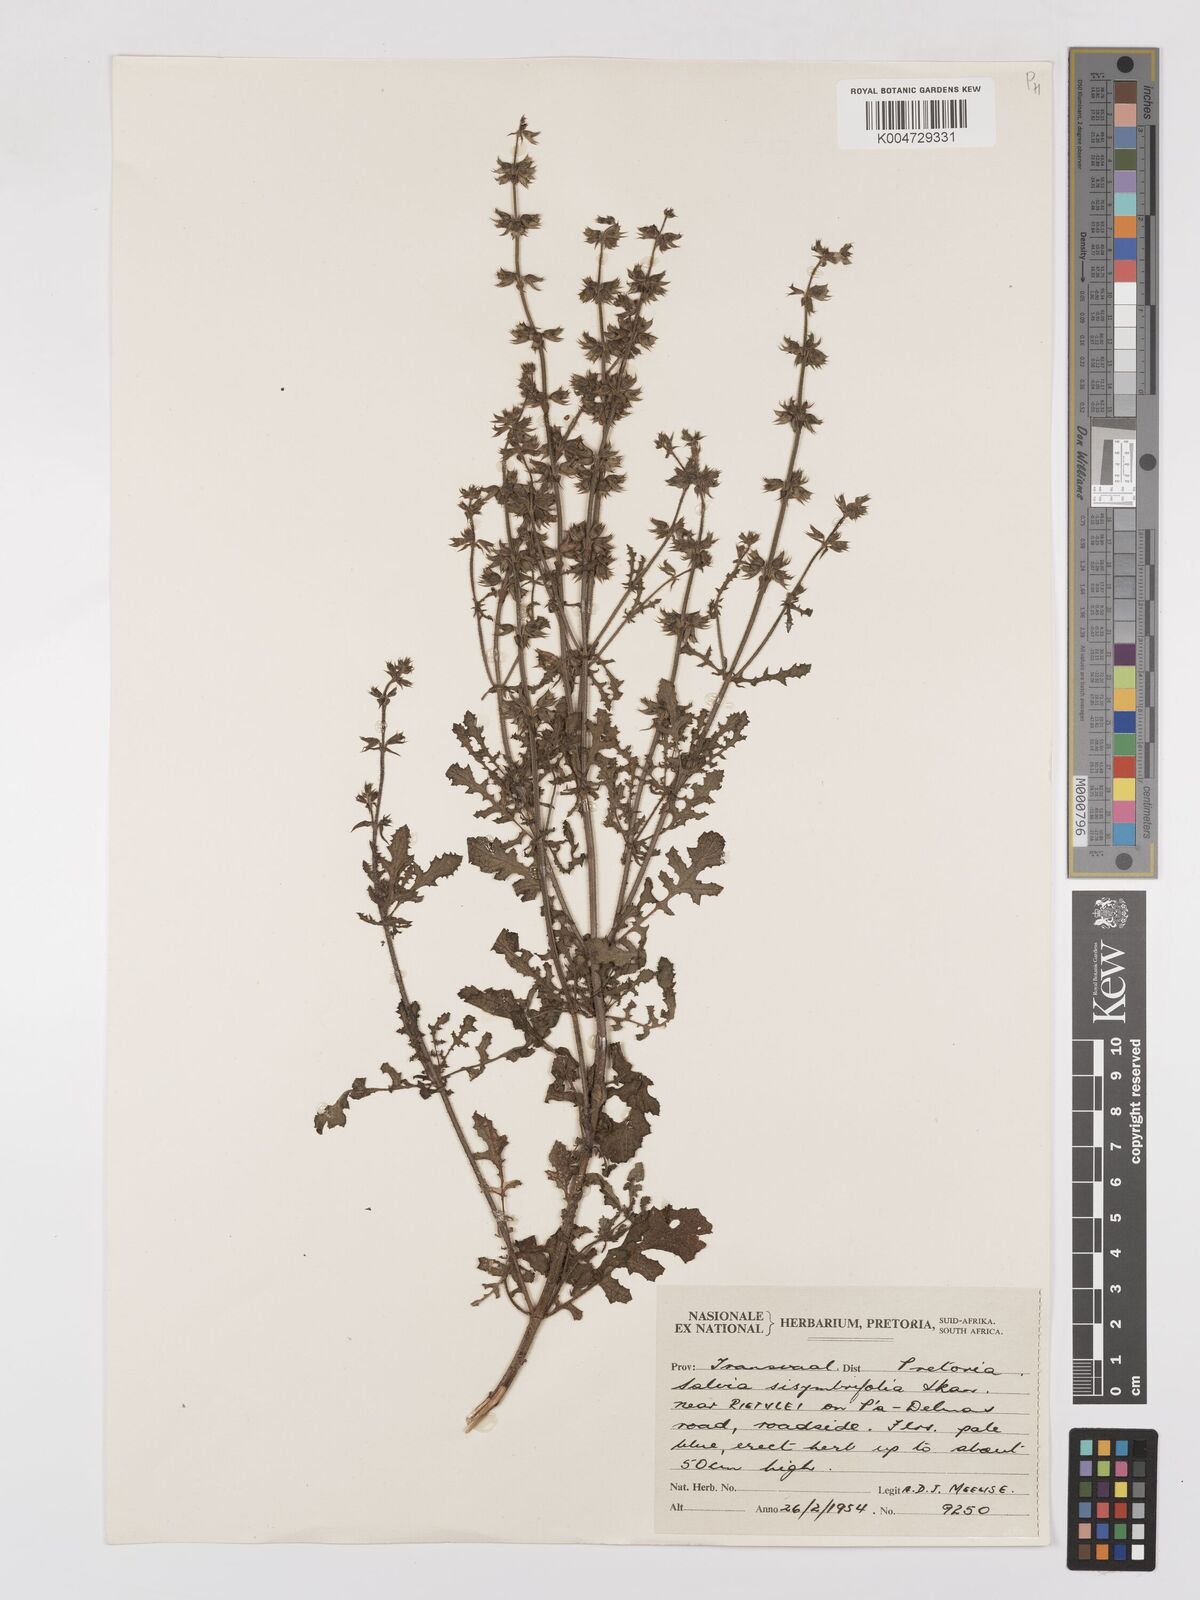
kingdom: Plantae
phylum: Tracheophyta
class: Magnoliopsida
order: Lamiales
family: Lamiaceae
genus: Salvia
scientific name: Salvia runcinata
